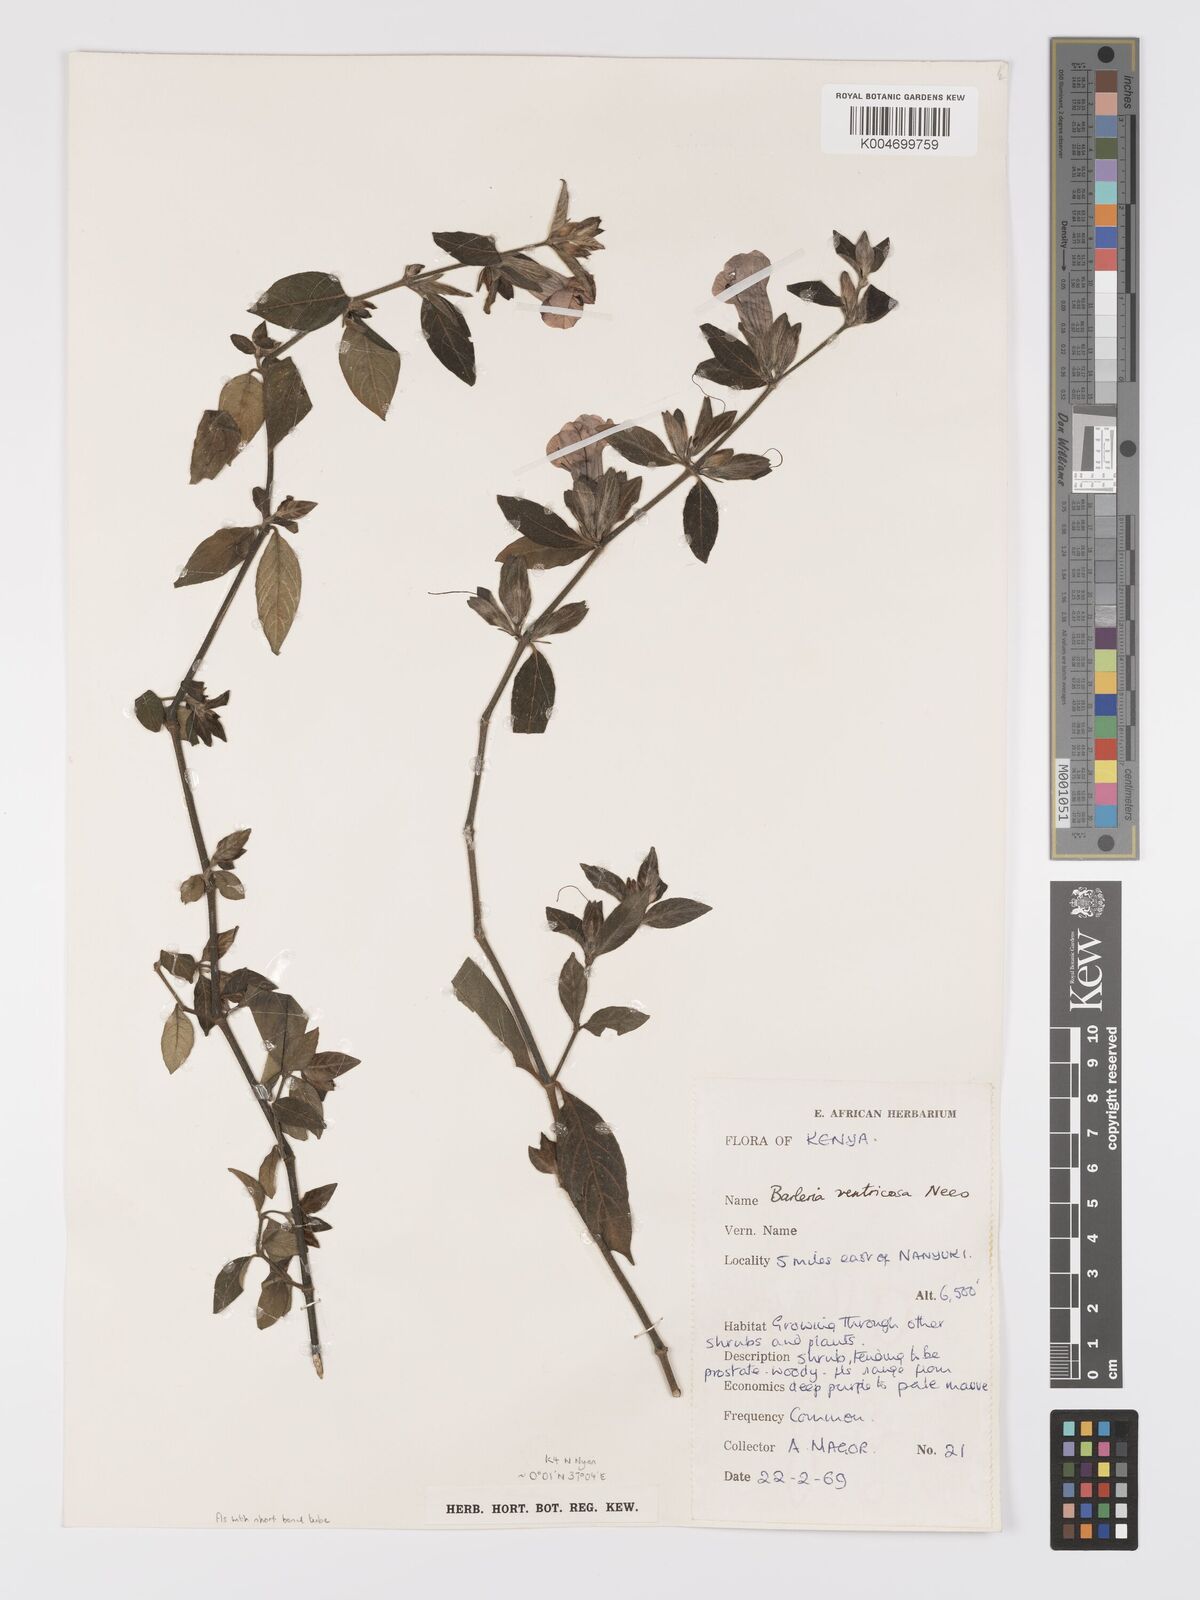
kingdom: Plantae
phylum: Tracheophyta
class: Magnoliopsida
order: Lamiales
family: Acanthaceae
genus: Barleria
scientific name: Barleria ventricosa
